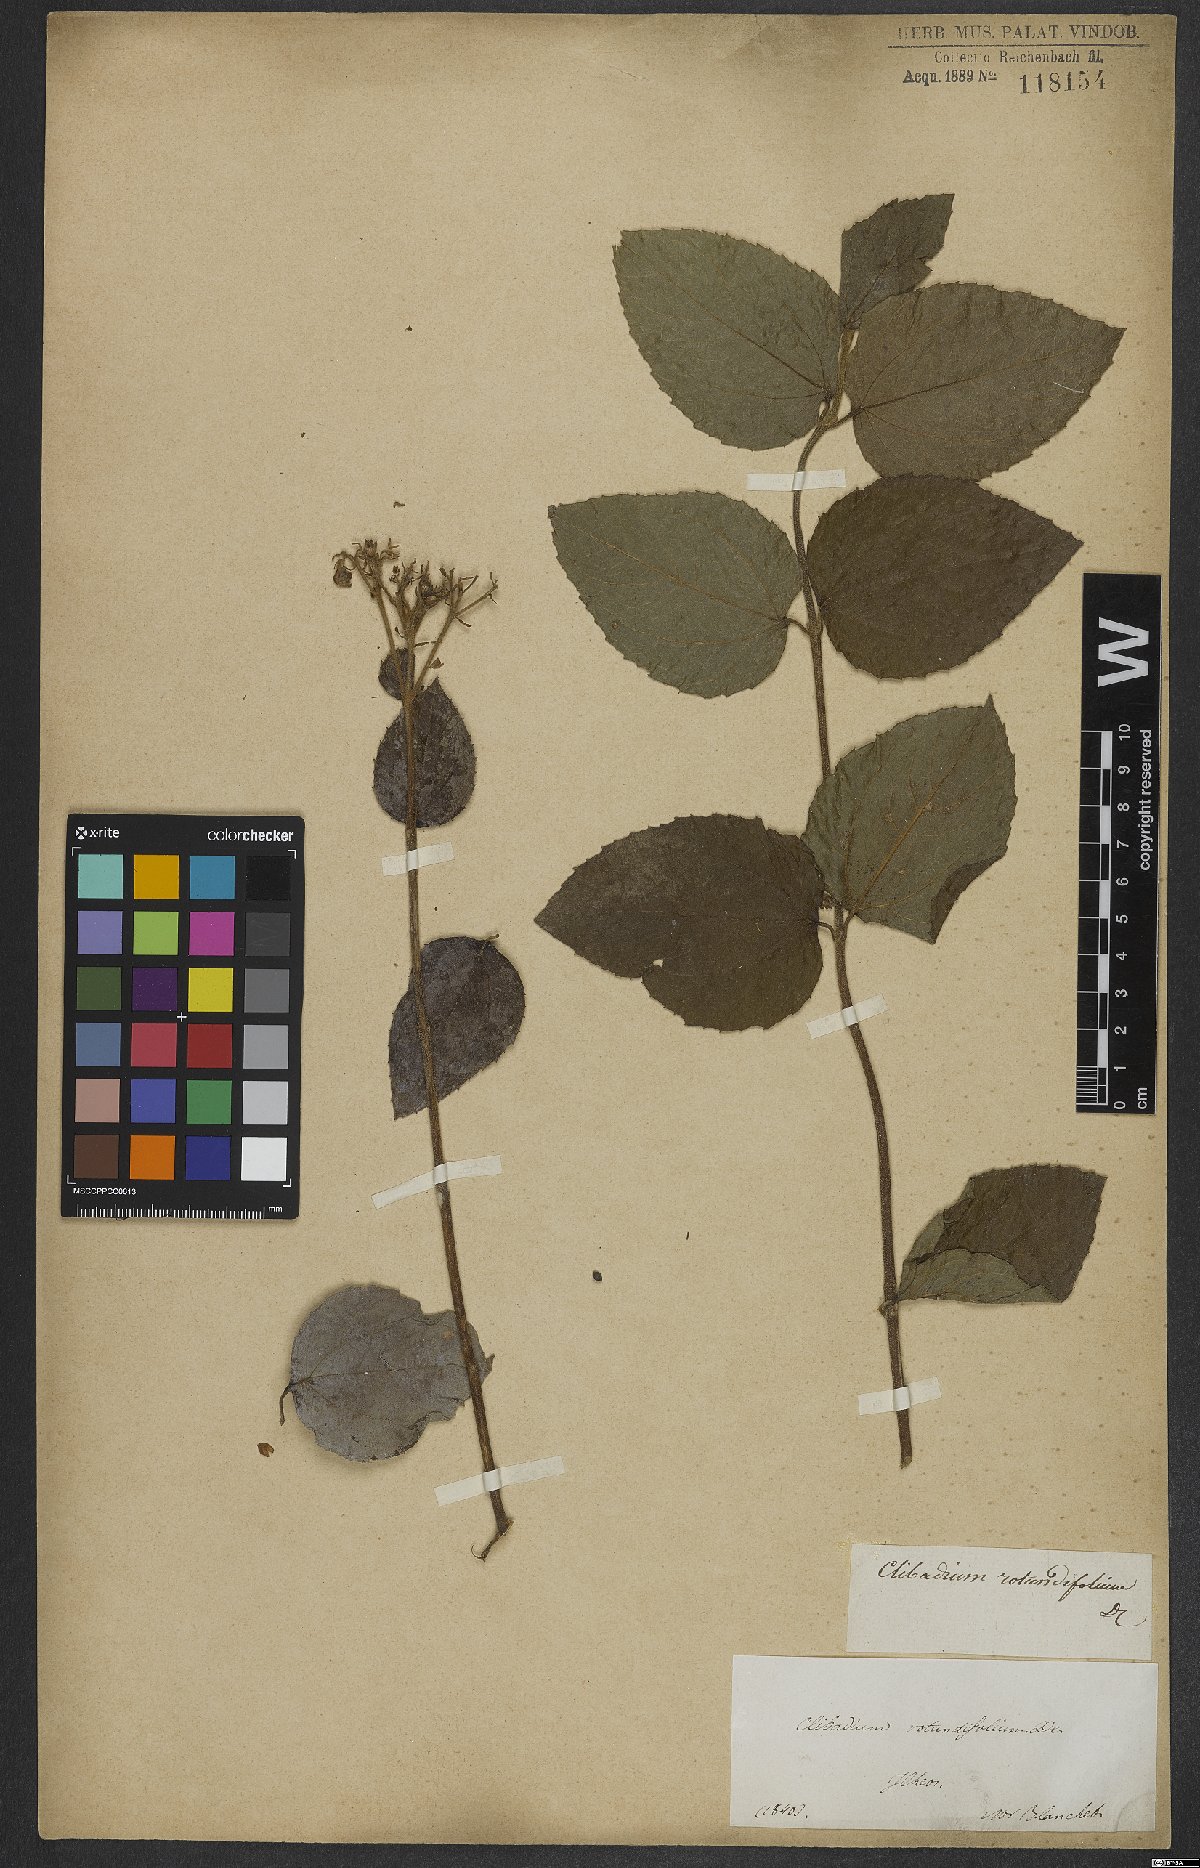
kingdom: Plantae
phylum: Tracheophyta
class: Magnoliopsida
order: Asterales
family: Asteraceae
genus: Clibadium
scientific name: Clibadium armanii
